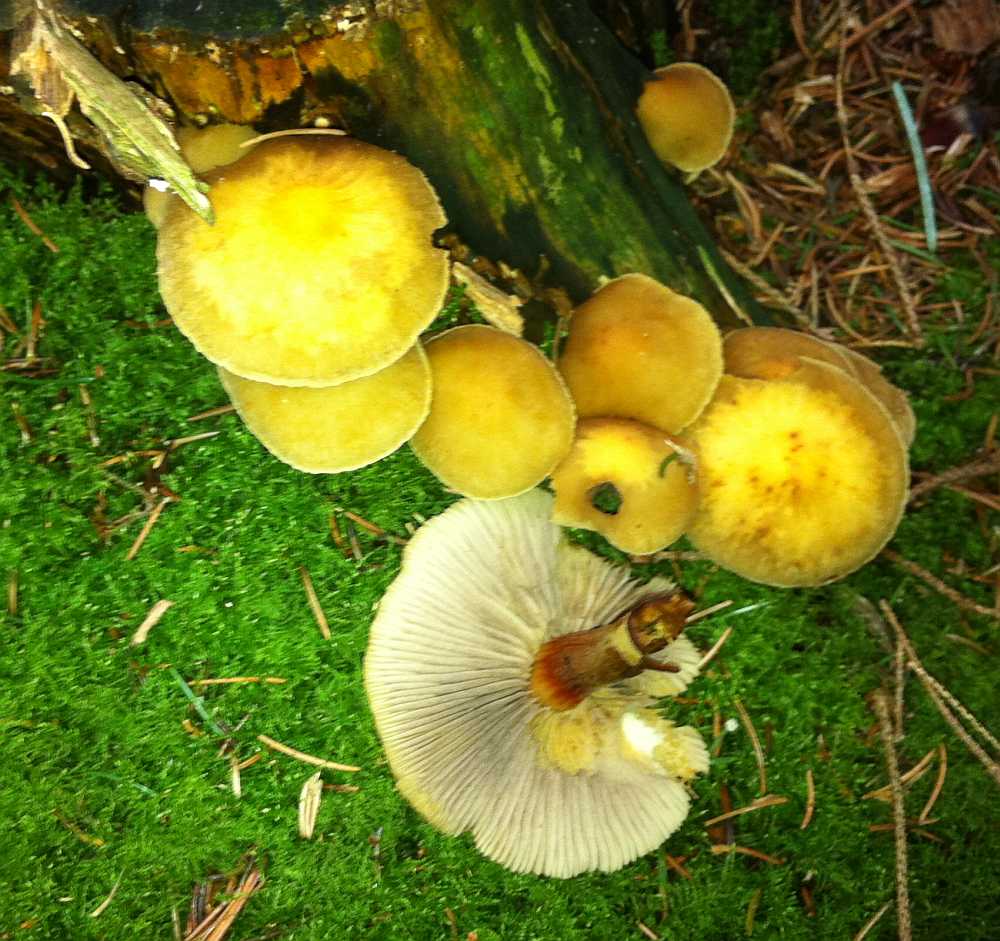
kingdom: Fungi
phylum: Basidiomycota
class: Agaricomycetes
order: Agaricales
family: Strophariaceae
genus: Hypholoma
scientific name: Hypholoma capnoides
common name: gran-svovlhat
